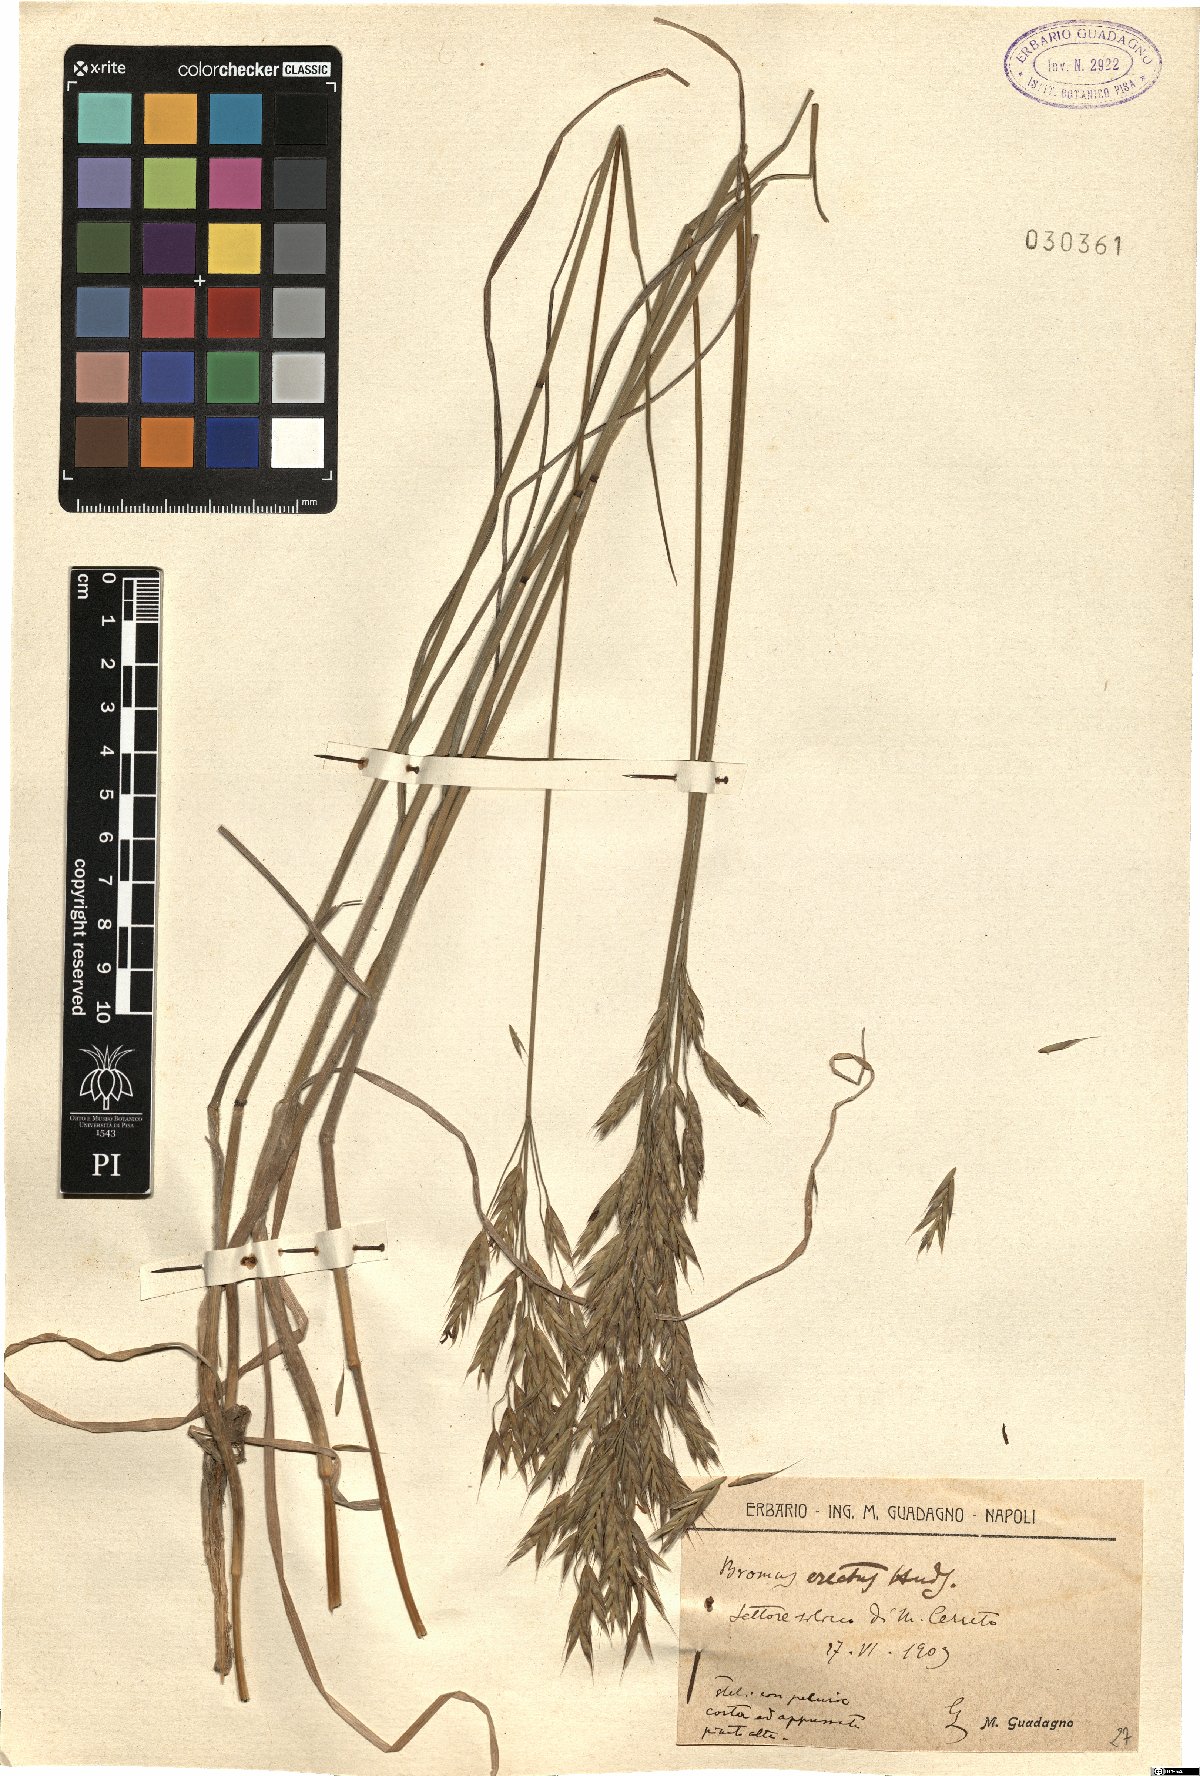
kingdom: Plantae
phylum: Tracheophyta
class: Liliopsida
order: Poales
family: Poaceae
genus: Bromus
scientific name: Bromus erectus
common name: Erect brome
